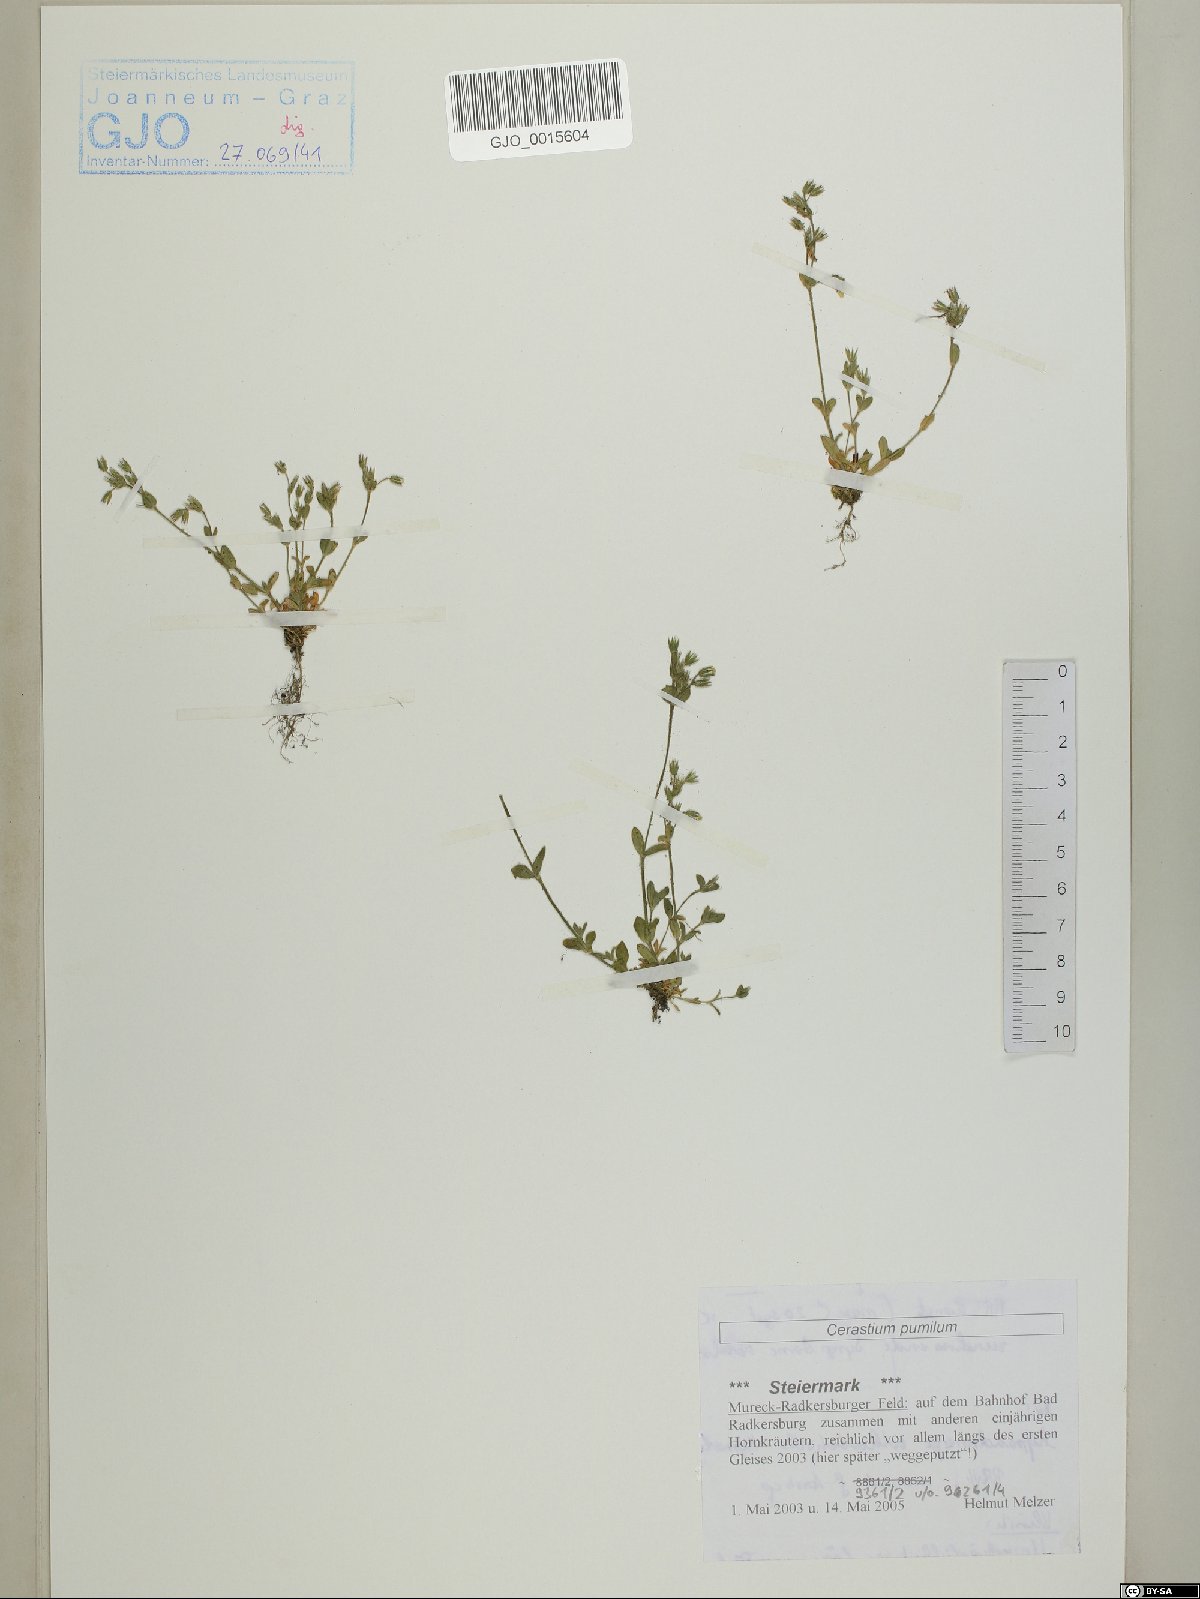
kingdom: Plantae
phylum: Tracheophyta
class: Magnoliopsida
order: Caryophyllales
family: Caryophyllaceae
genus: Cerastium
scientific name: Cerastium pumilum
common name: Dwarf mouse-ear
